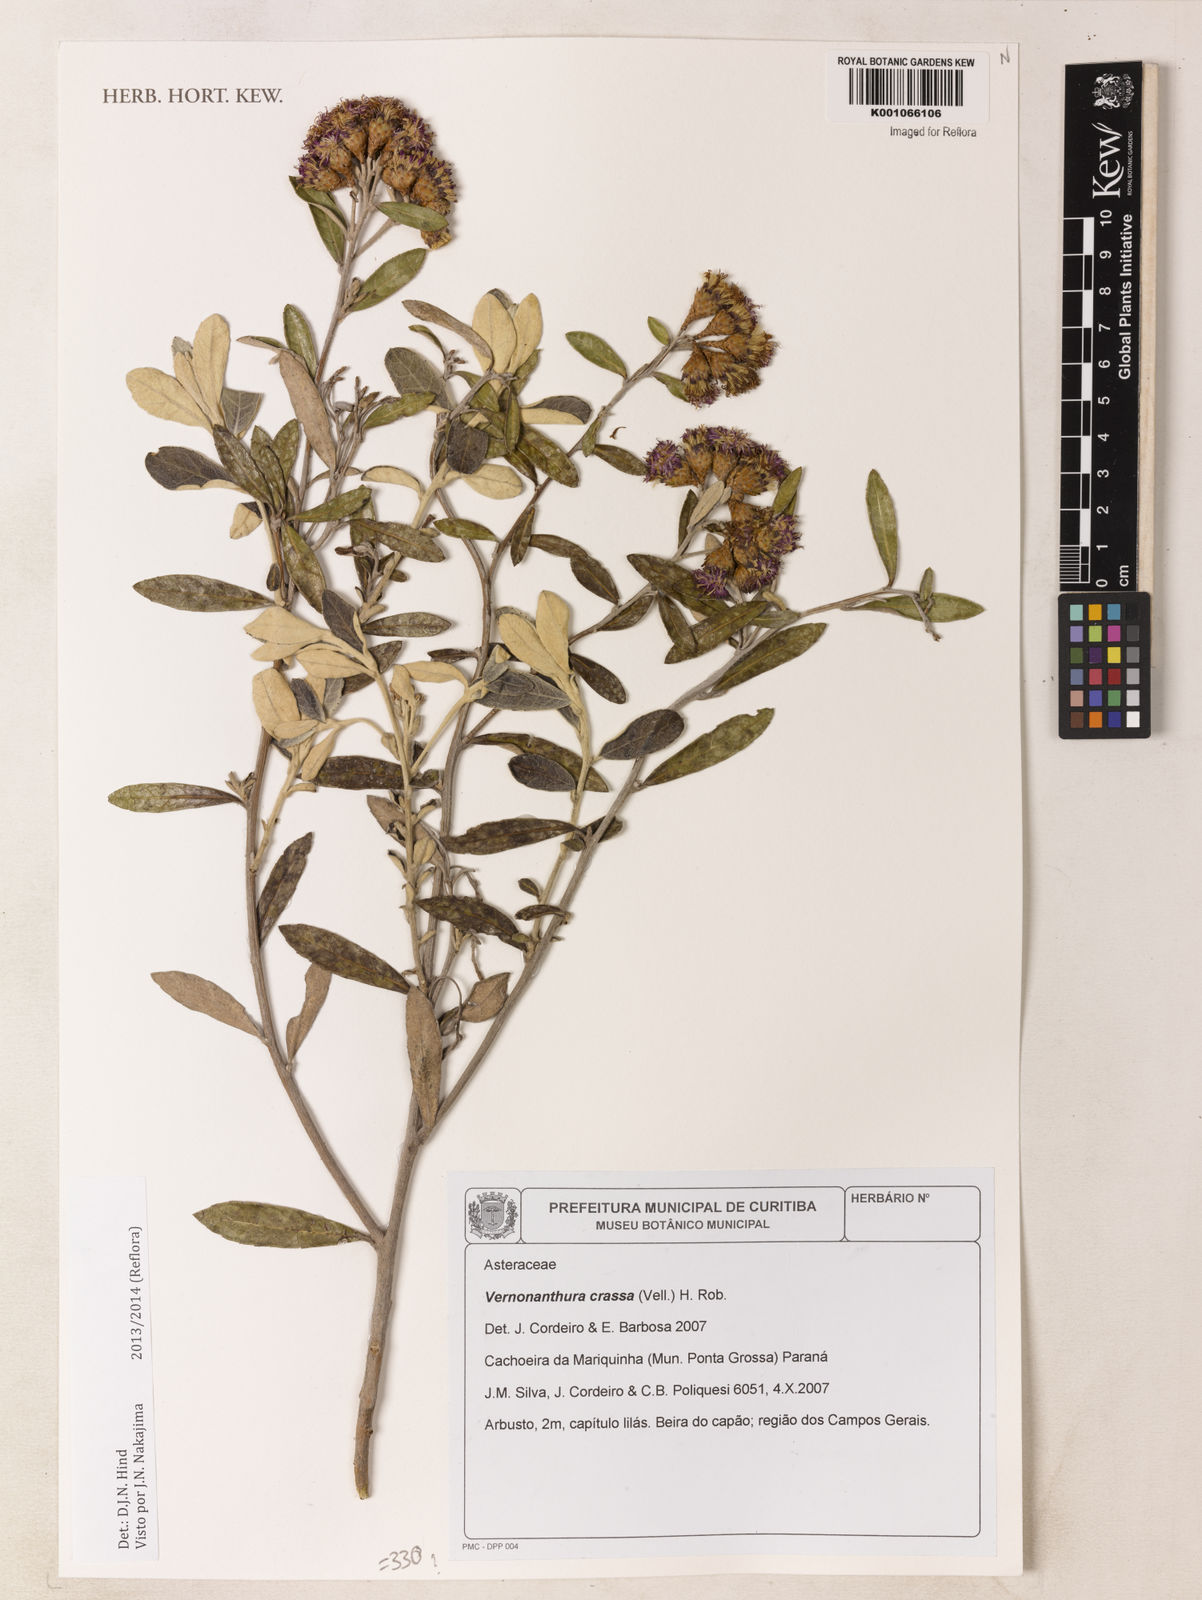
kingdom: Plantae
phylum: Tracheophyta
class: Magnoliopsida
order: Asterales
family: Asteraceae
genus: Vernonanthura
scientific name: Vernonanthura crassa
